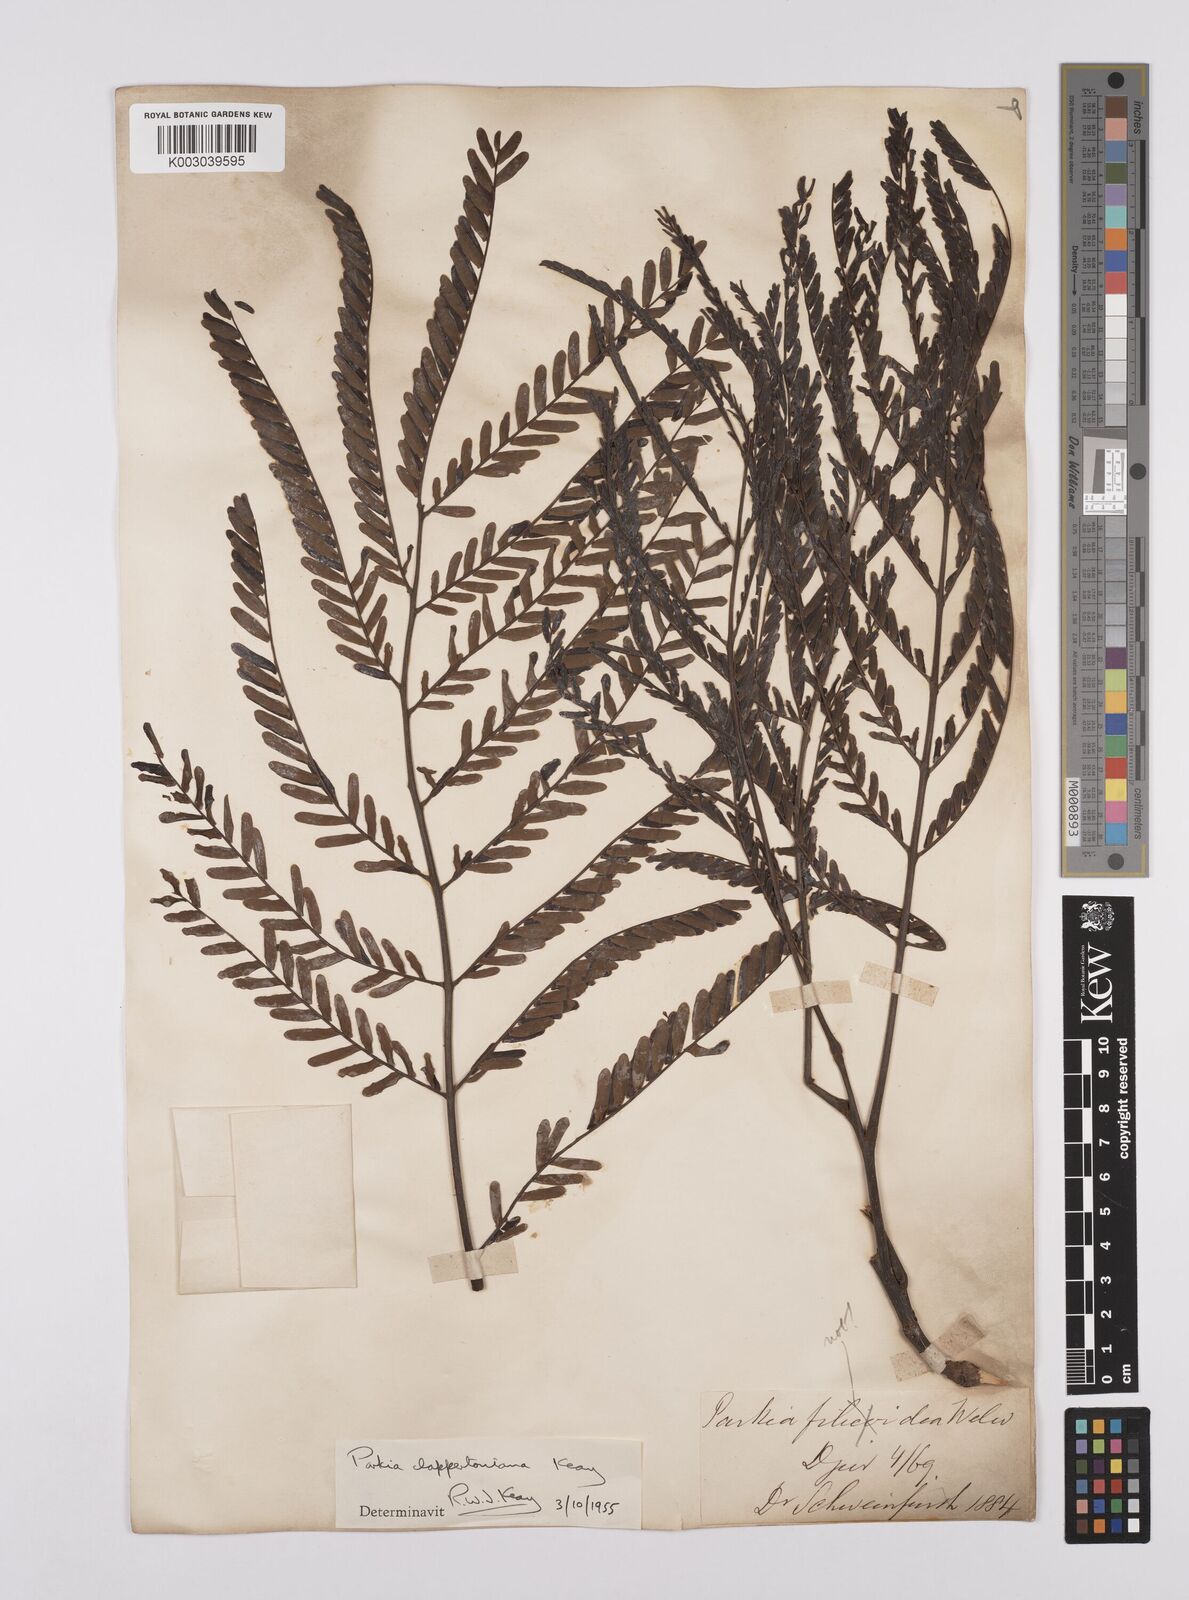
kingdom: Plantae
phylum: Tracheophyta
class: Magnoliopsida
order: Fabales
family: Fabaceae
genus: Parkia
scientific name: Parkia biglobosa
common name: African locust-bean
